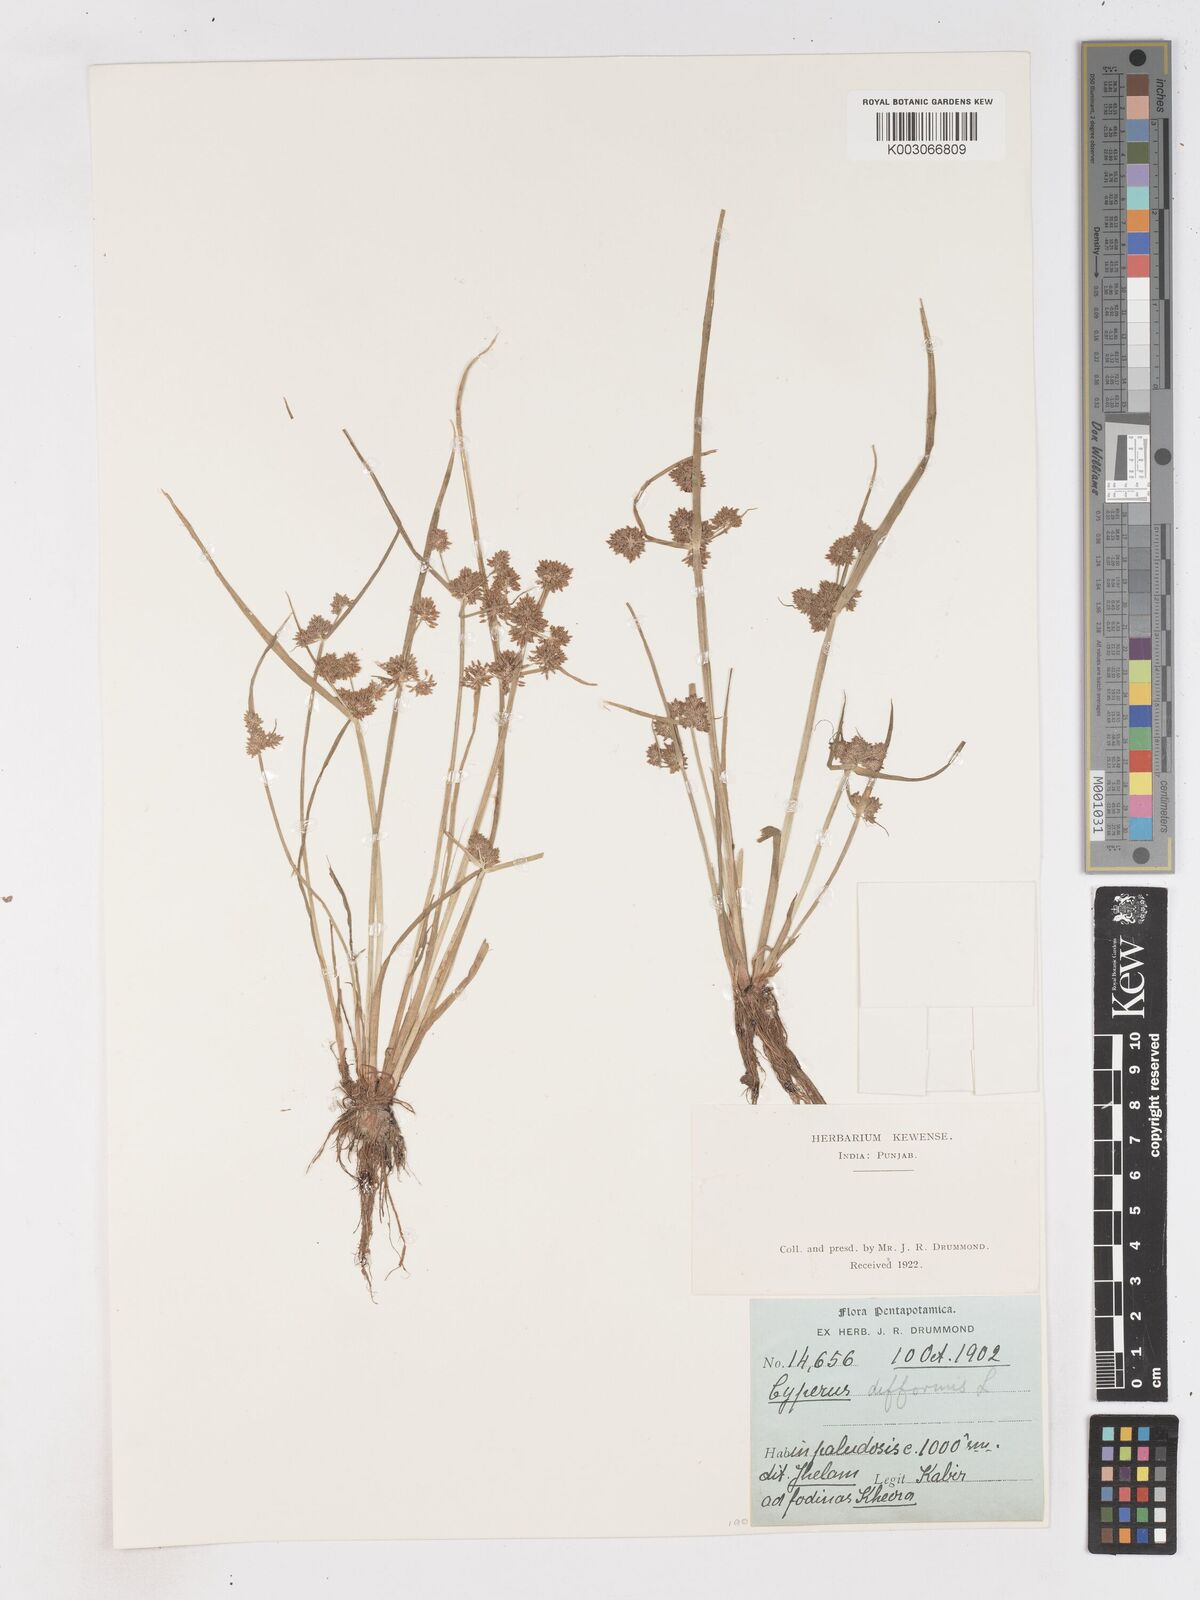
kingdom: Plantae
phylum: Tracheophyta
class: Liliopsida
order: Poales
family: Cyperaceae
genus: Cyperus
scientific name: Cyperus difformis
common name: Variable flatsedge
